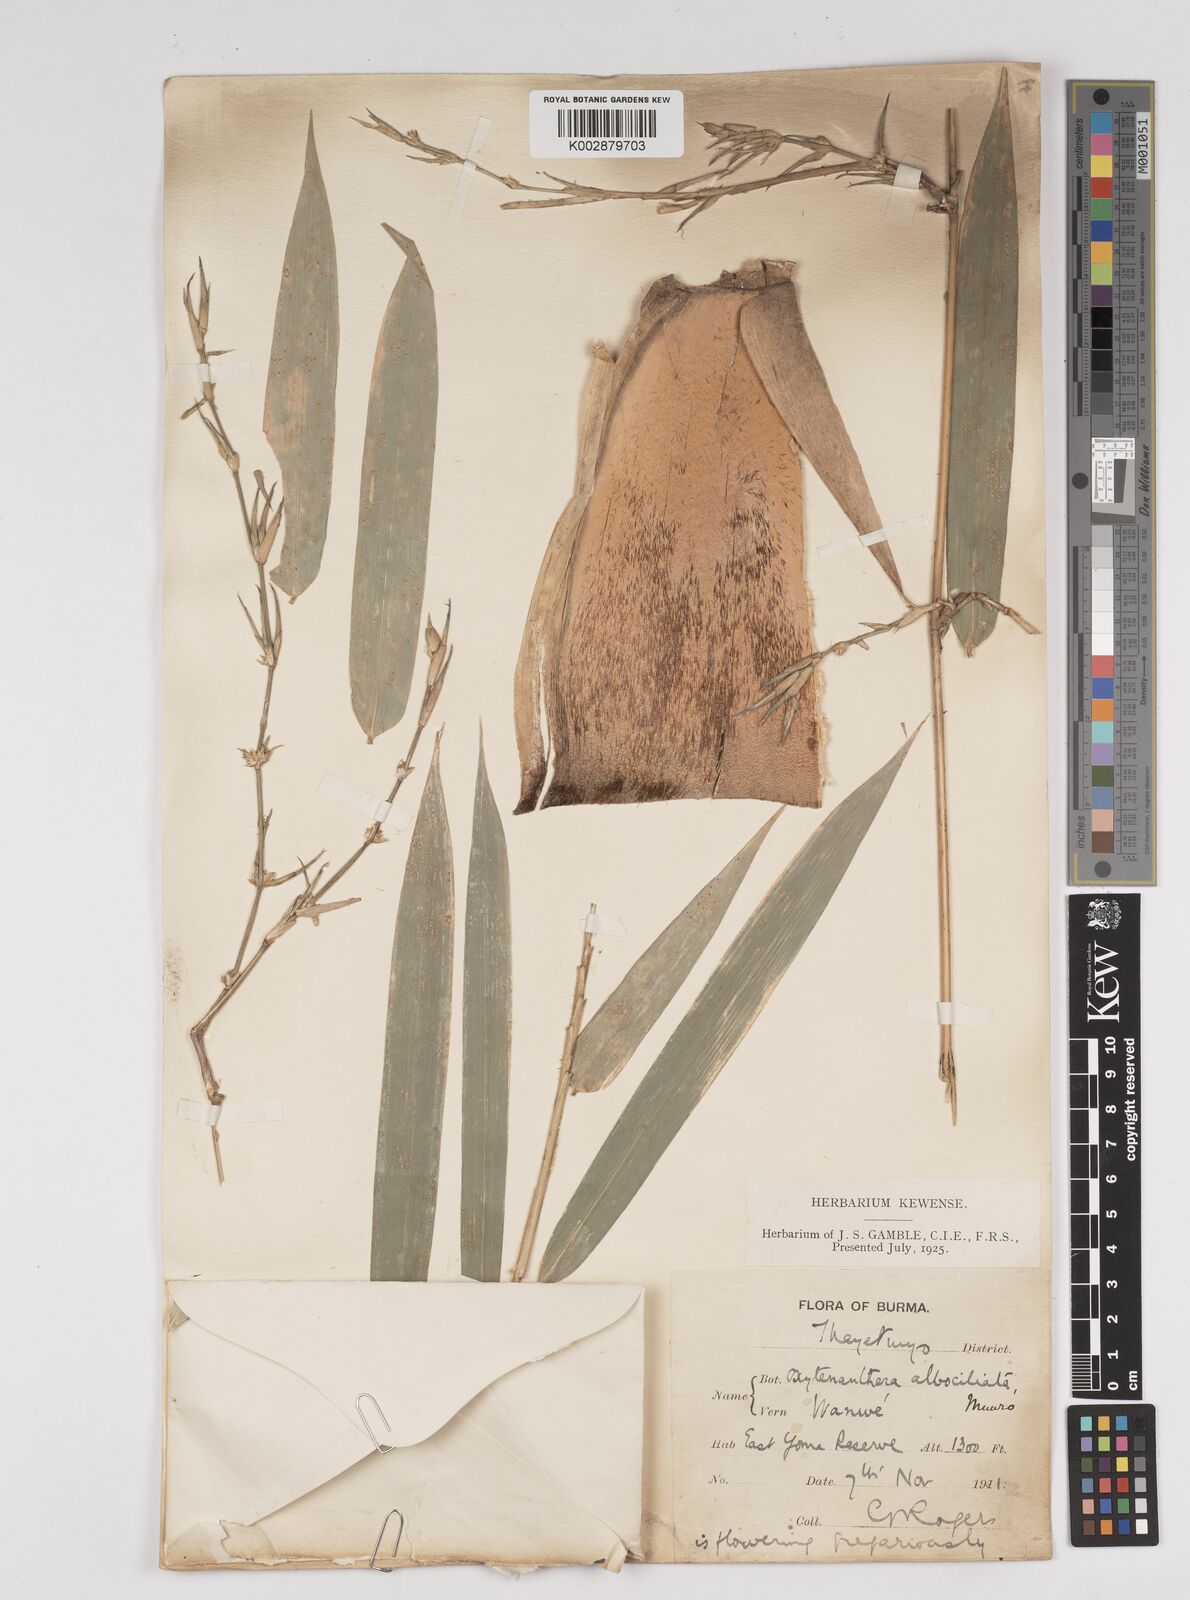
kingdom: Plantae
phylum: Tracheophyta
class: Liliopsida
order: Poales
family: Poaceae
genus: Gigantochloa
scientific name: Gigantochloa albociliata
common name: White-fringe gigantochloa
